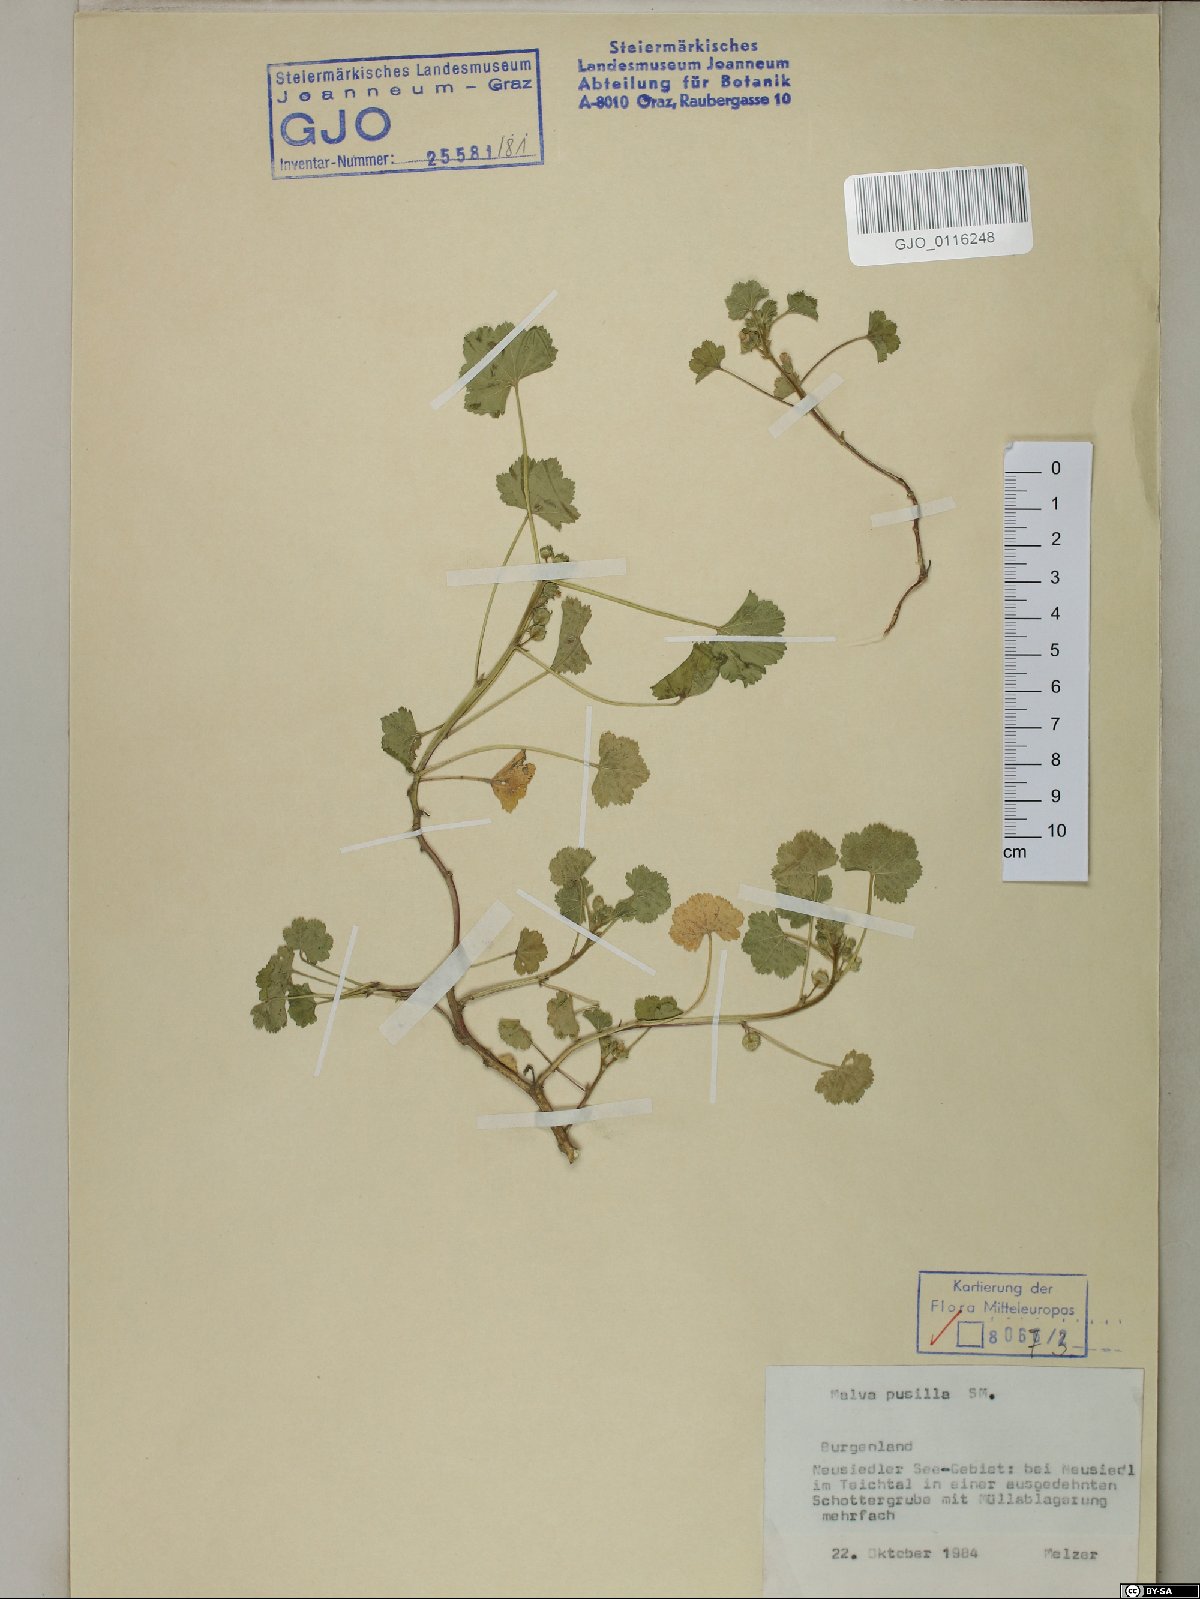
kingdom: Plantae
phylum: Tracheophyta
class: Magnoliopsida
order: Malvales
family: Malvaceae
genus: Malva
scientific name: Malva pusilla
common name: Small mallow
